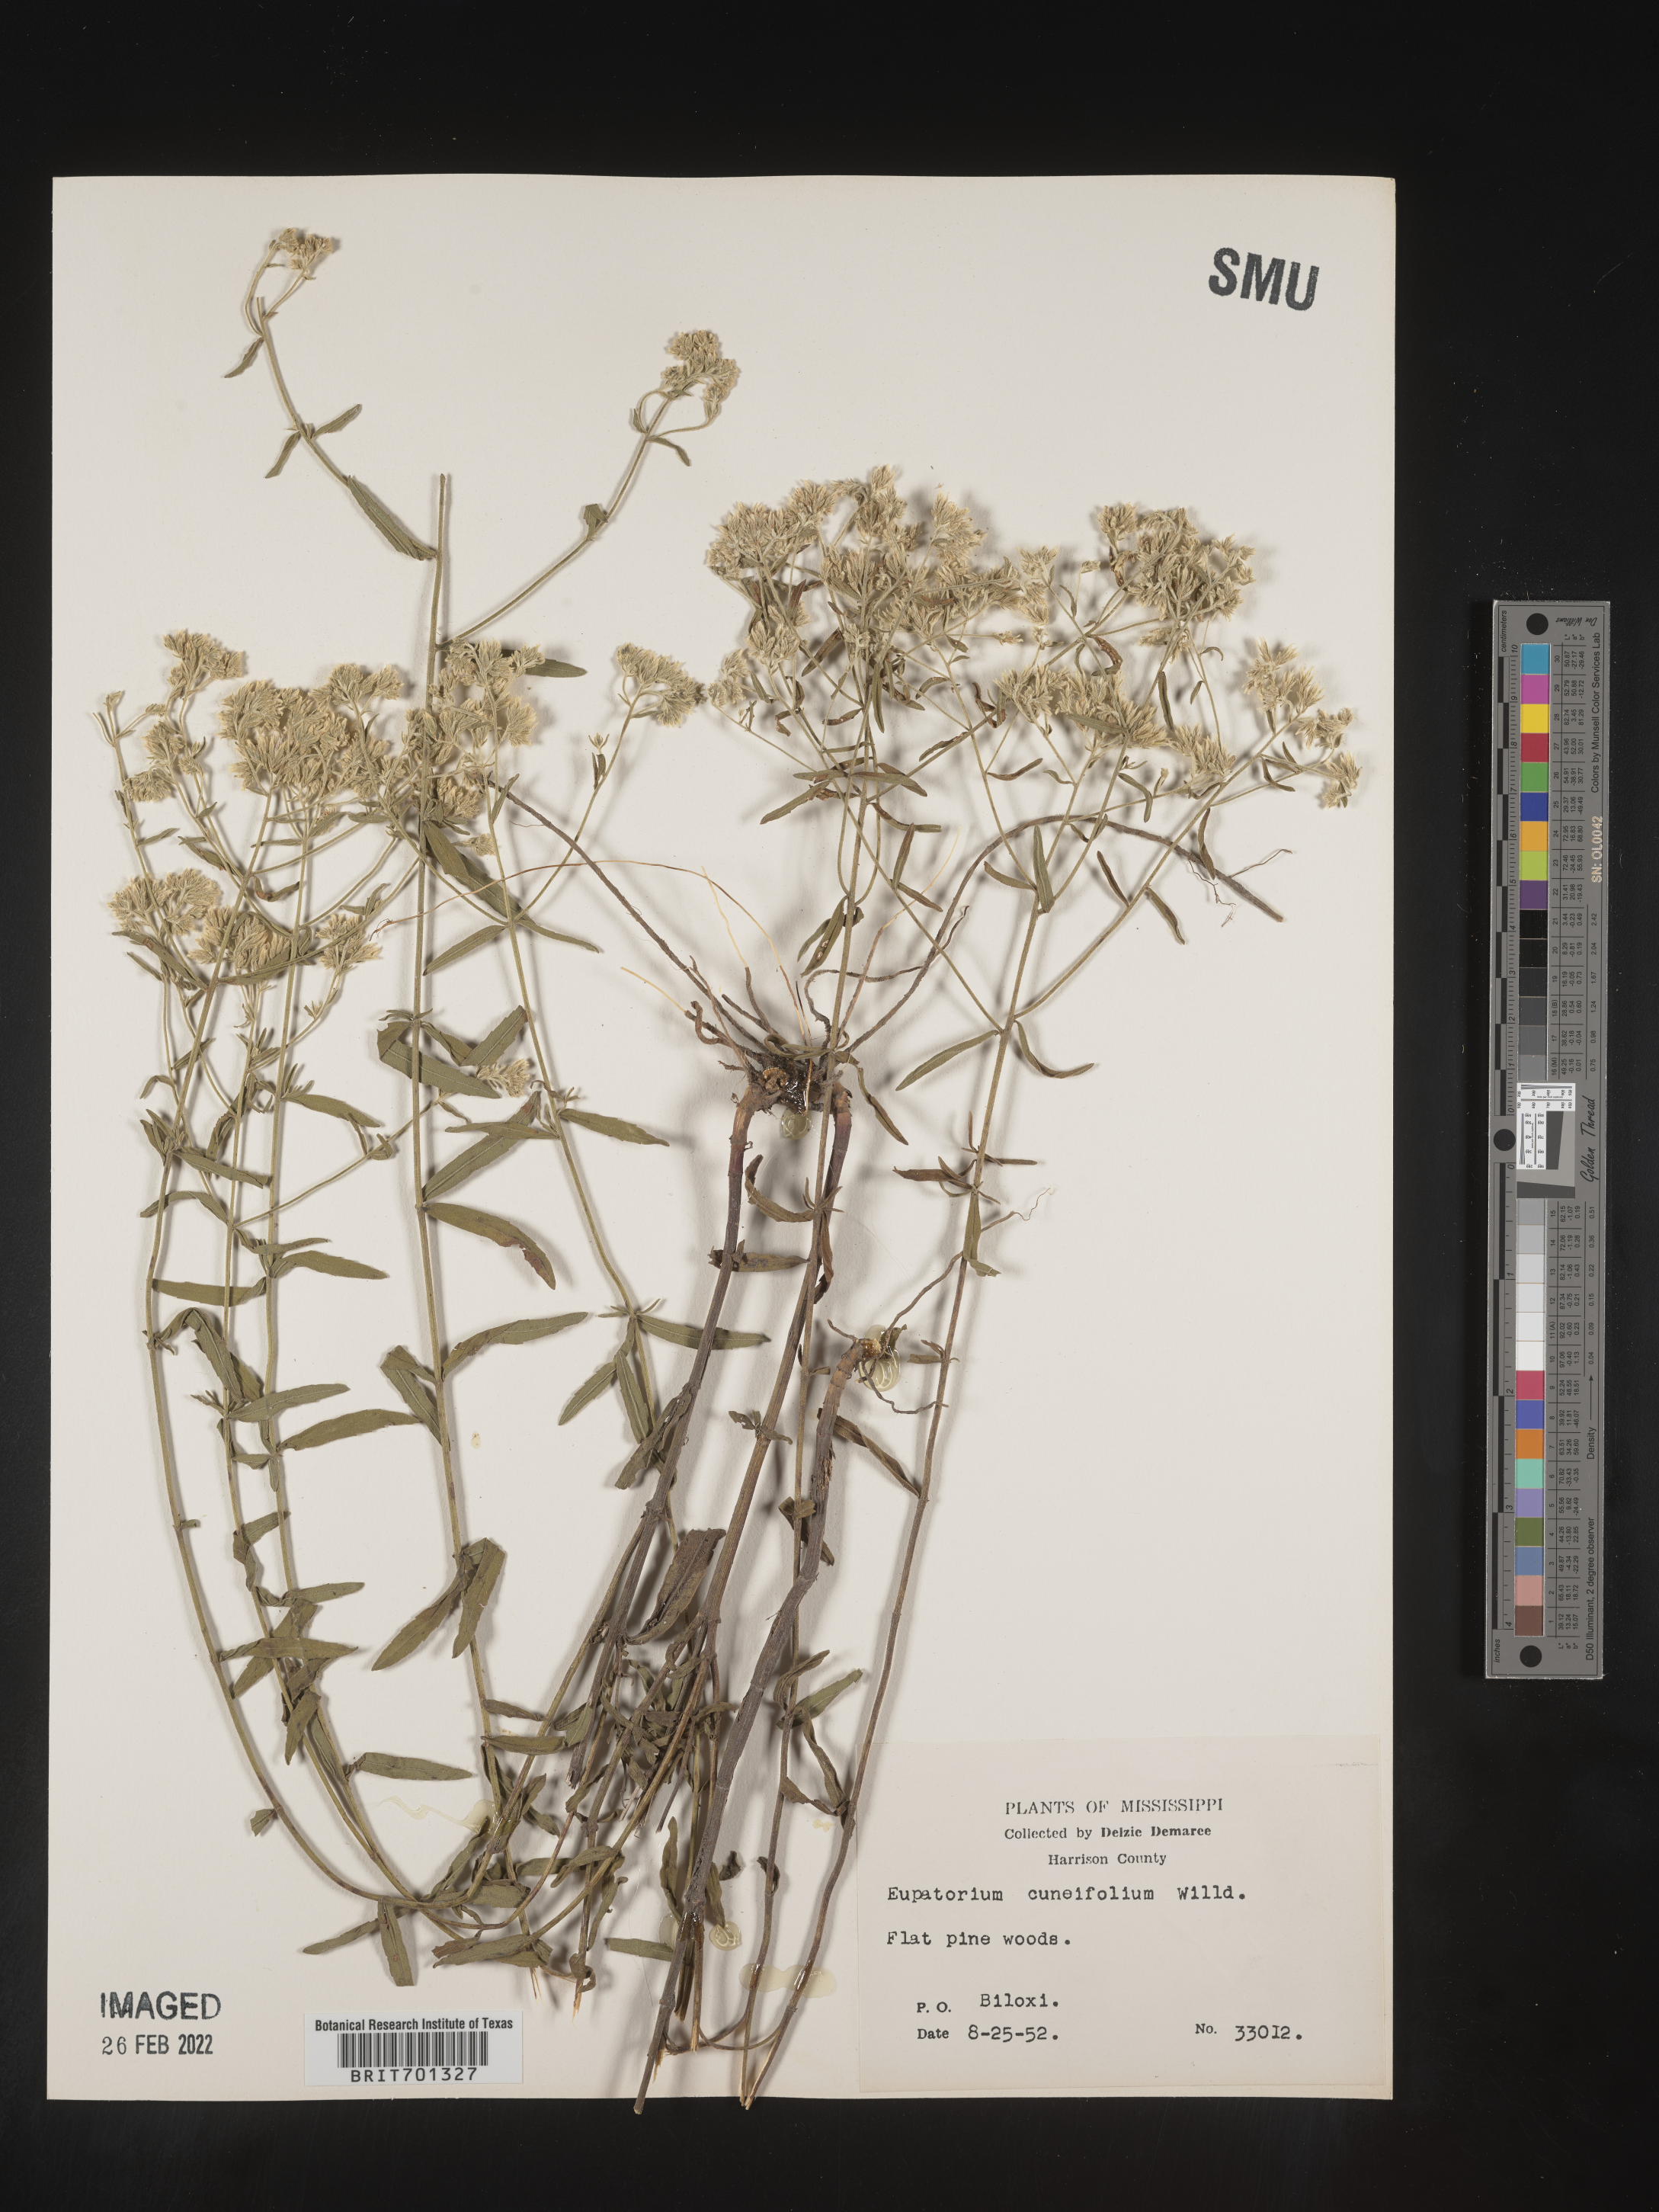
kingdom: Plantae
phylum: Tracheophyta
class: Magnoliopsida
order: Asterales
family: Asteraceae
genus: Eupatorium
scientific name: Eupatorium linearifolium
